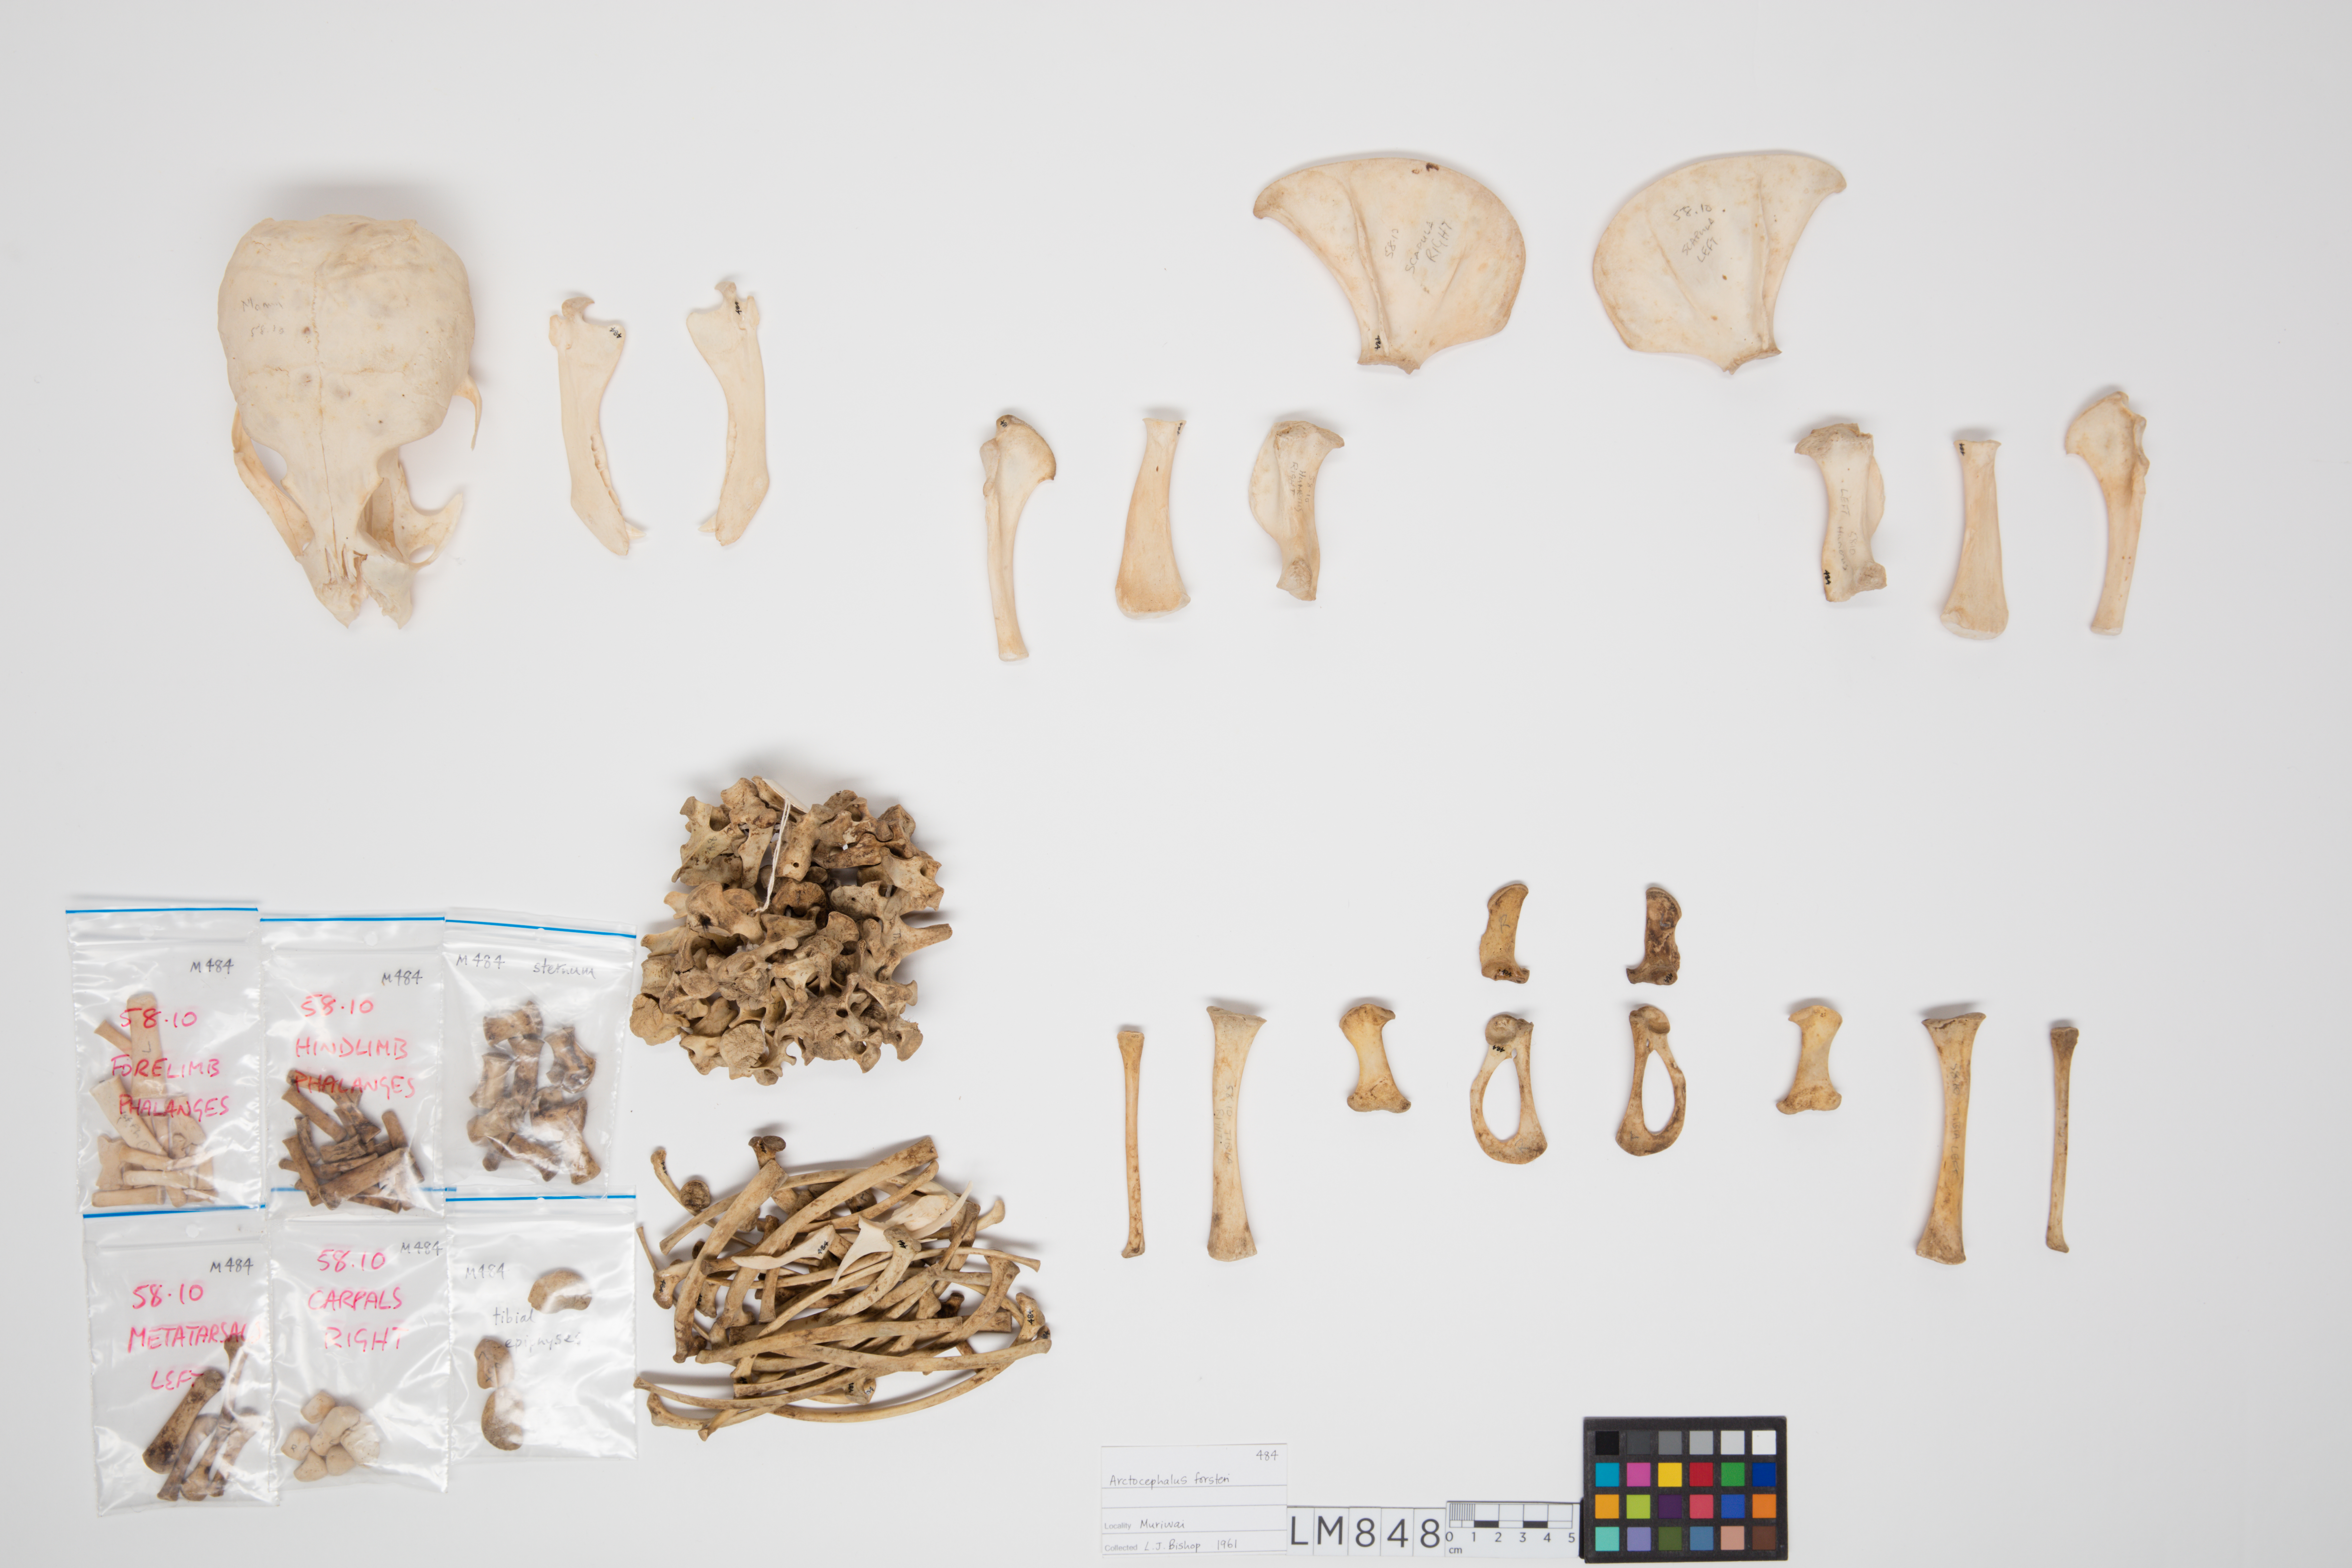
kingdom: Animalia
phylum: Chordata
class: Mammalia
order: Carnivora
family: Otariidae
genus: Arctocephalus
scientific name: Arctocephalus forsteri
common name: New zealand fur seal
